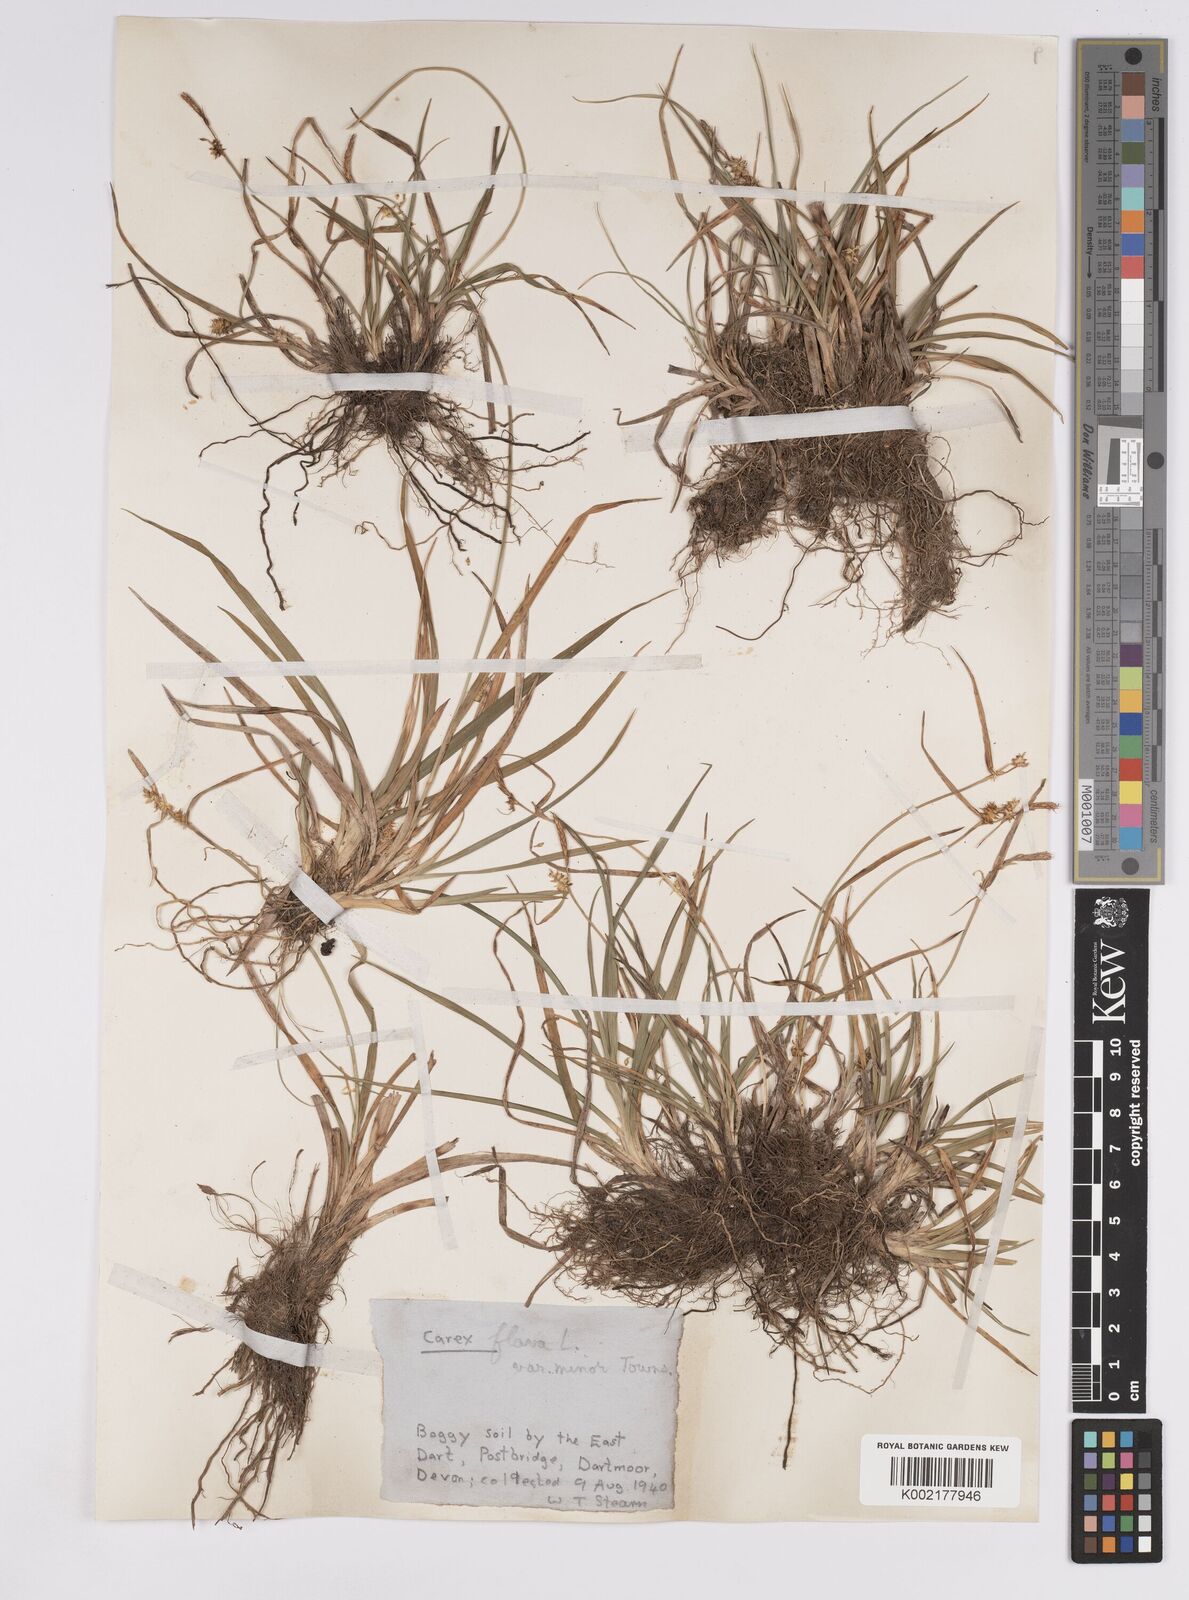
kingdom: Plantae
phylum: Tracheophyta
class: Liliopsida
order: Poales
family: Cyperaceae
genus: Carex
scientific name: Carex demissa
